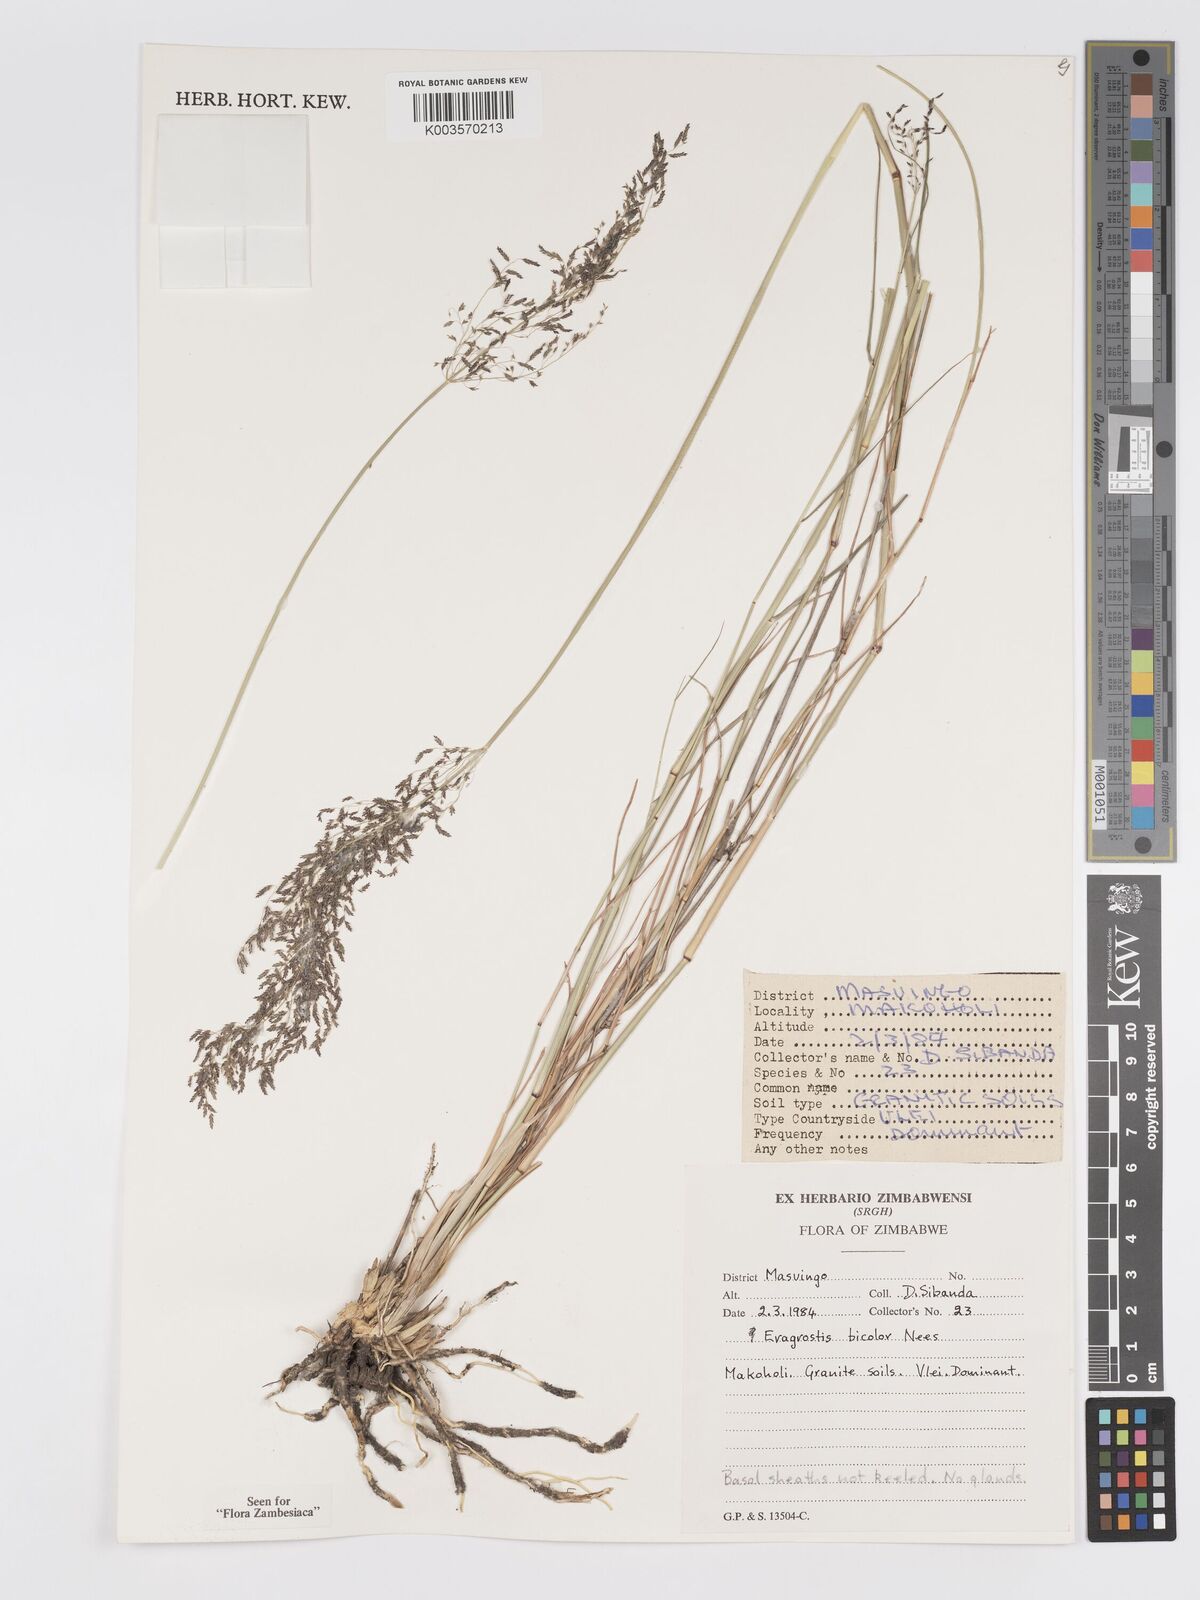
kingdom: Plantae
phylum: Tracheophyta
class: Liliopsida
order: Poales
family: Poaceae
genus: Eragrostis
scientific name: Eragrostis bicolor
